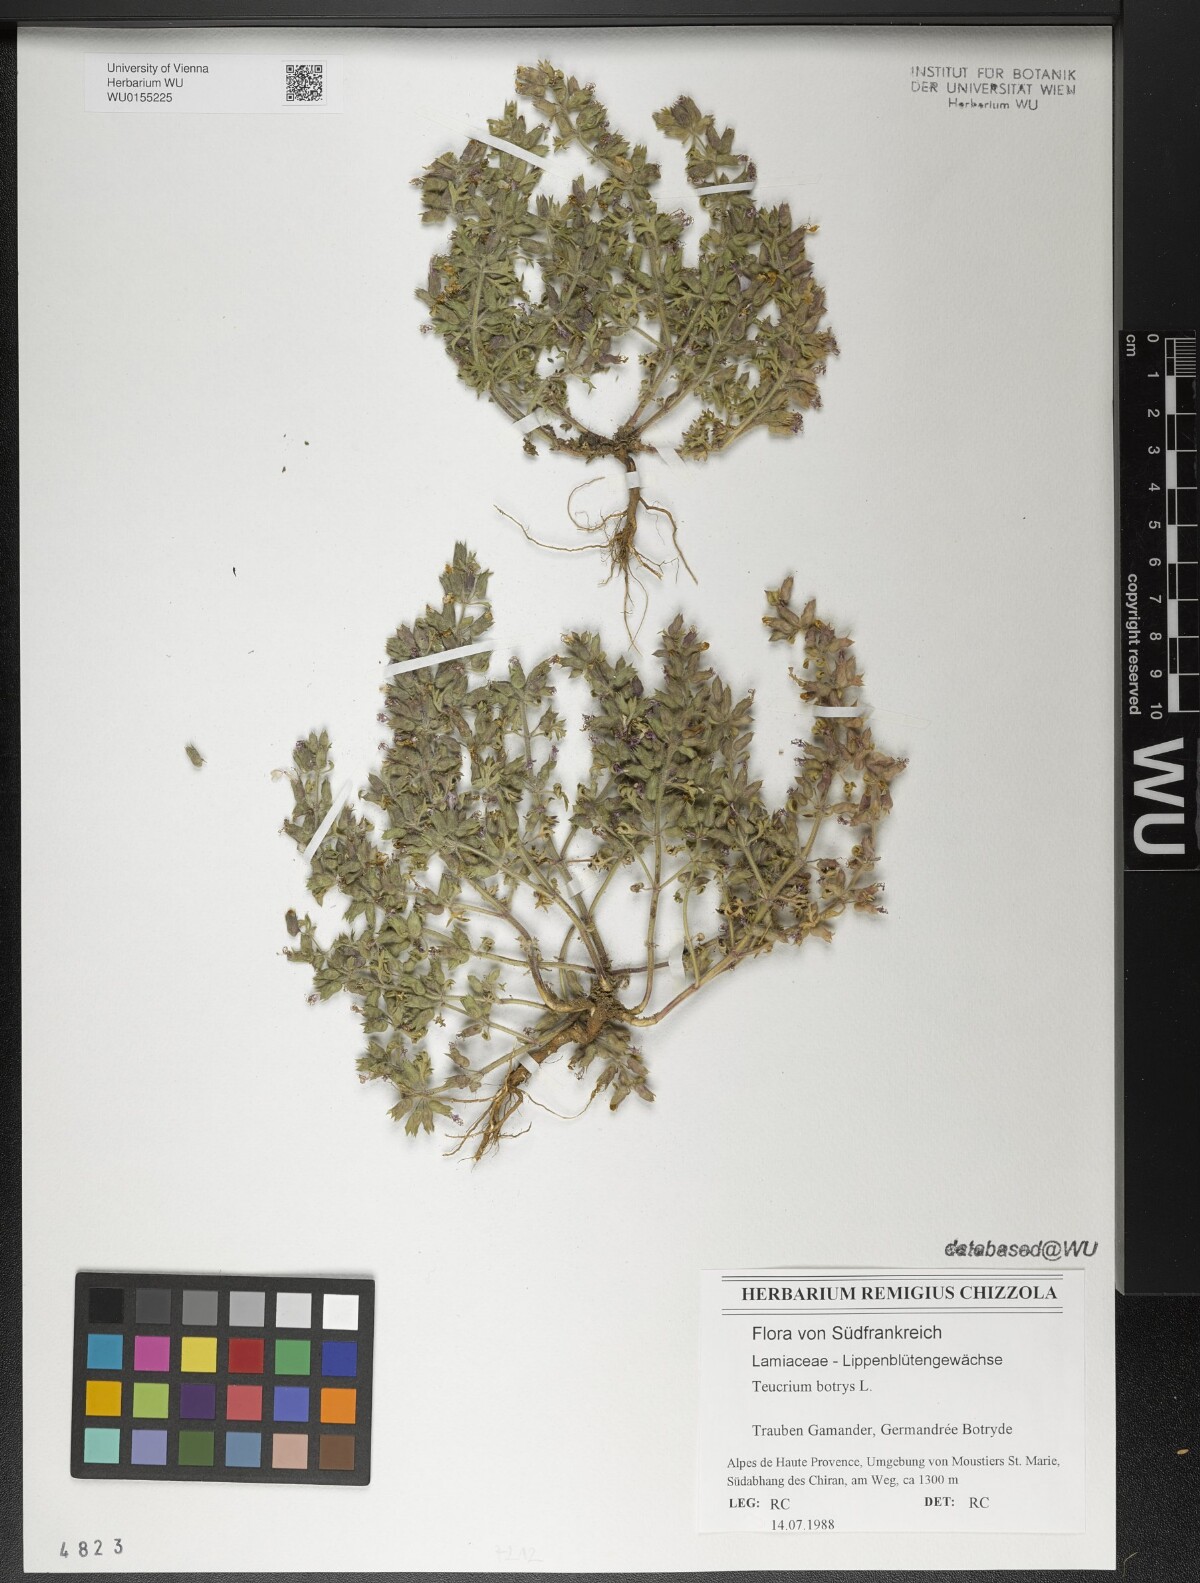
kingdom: Plantae
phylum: Tracheophyta
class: Magnoliopsida
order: Lamiales
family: Lamiaceae
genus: Teucrium
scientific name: Teucrium botrys
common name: Cut-leaved germander
